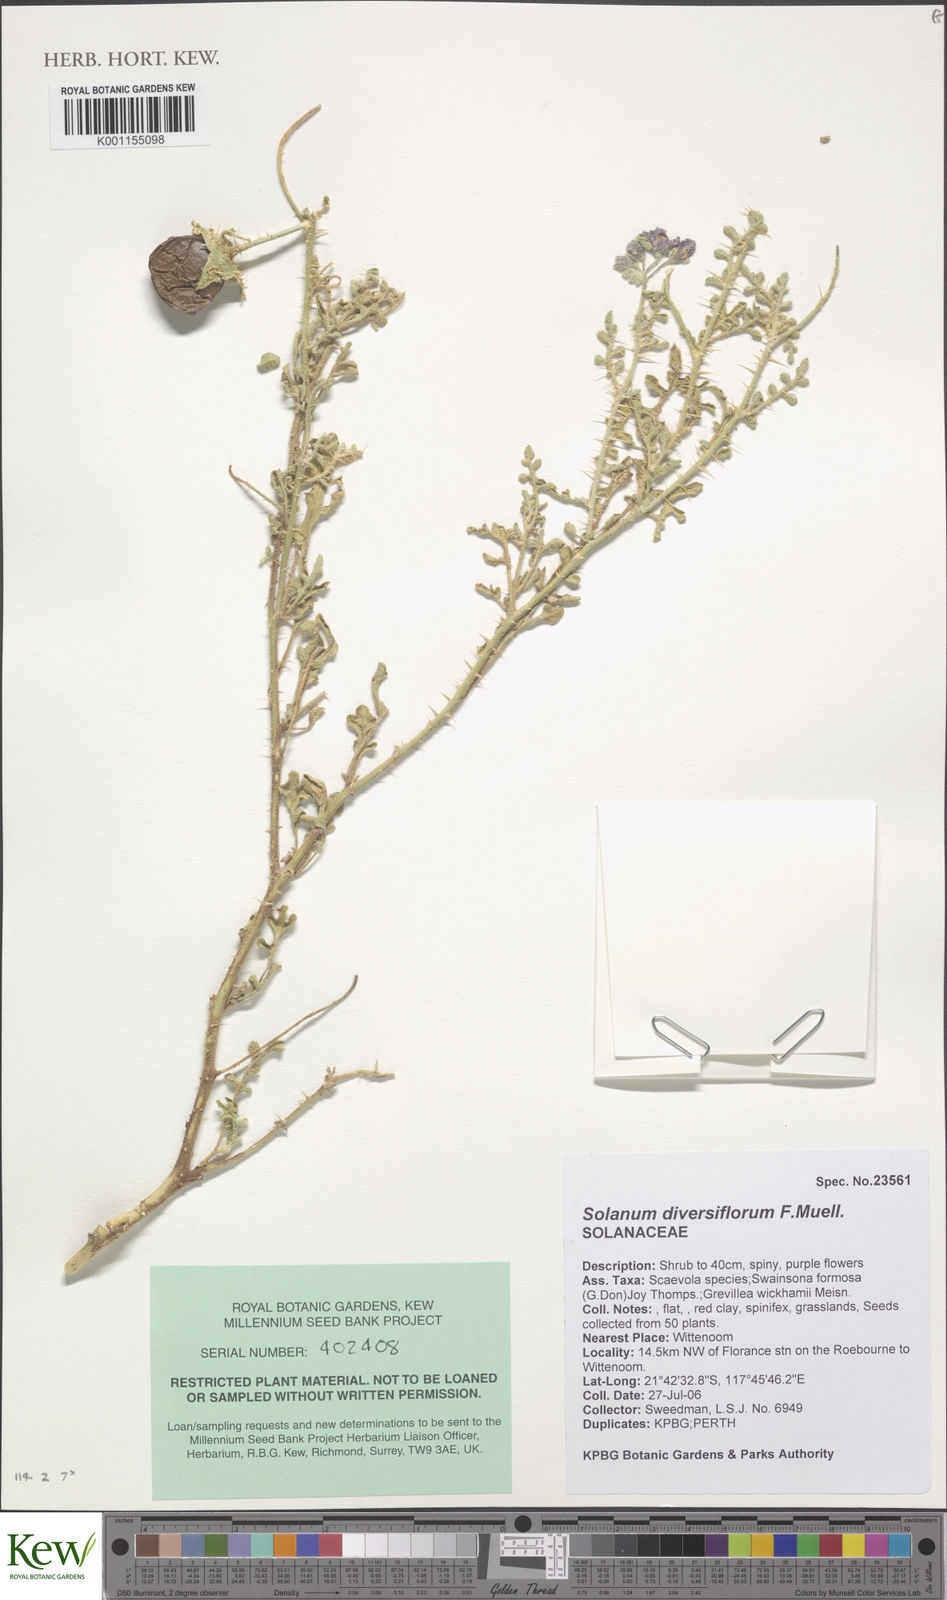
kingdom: Plantae
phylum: Tracheophyta
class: Magnoliopsida
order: Solanales
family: Solanaceae
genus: Solanum
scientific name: Solanum diversiflorum
